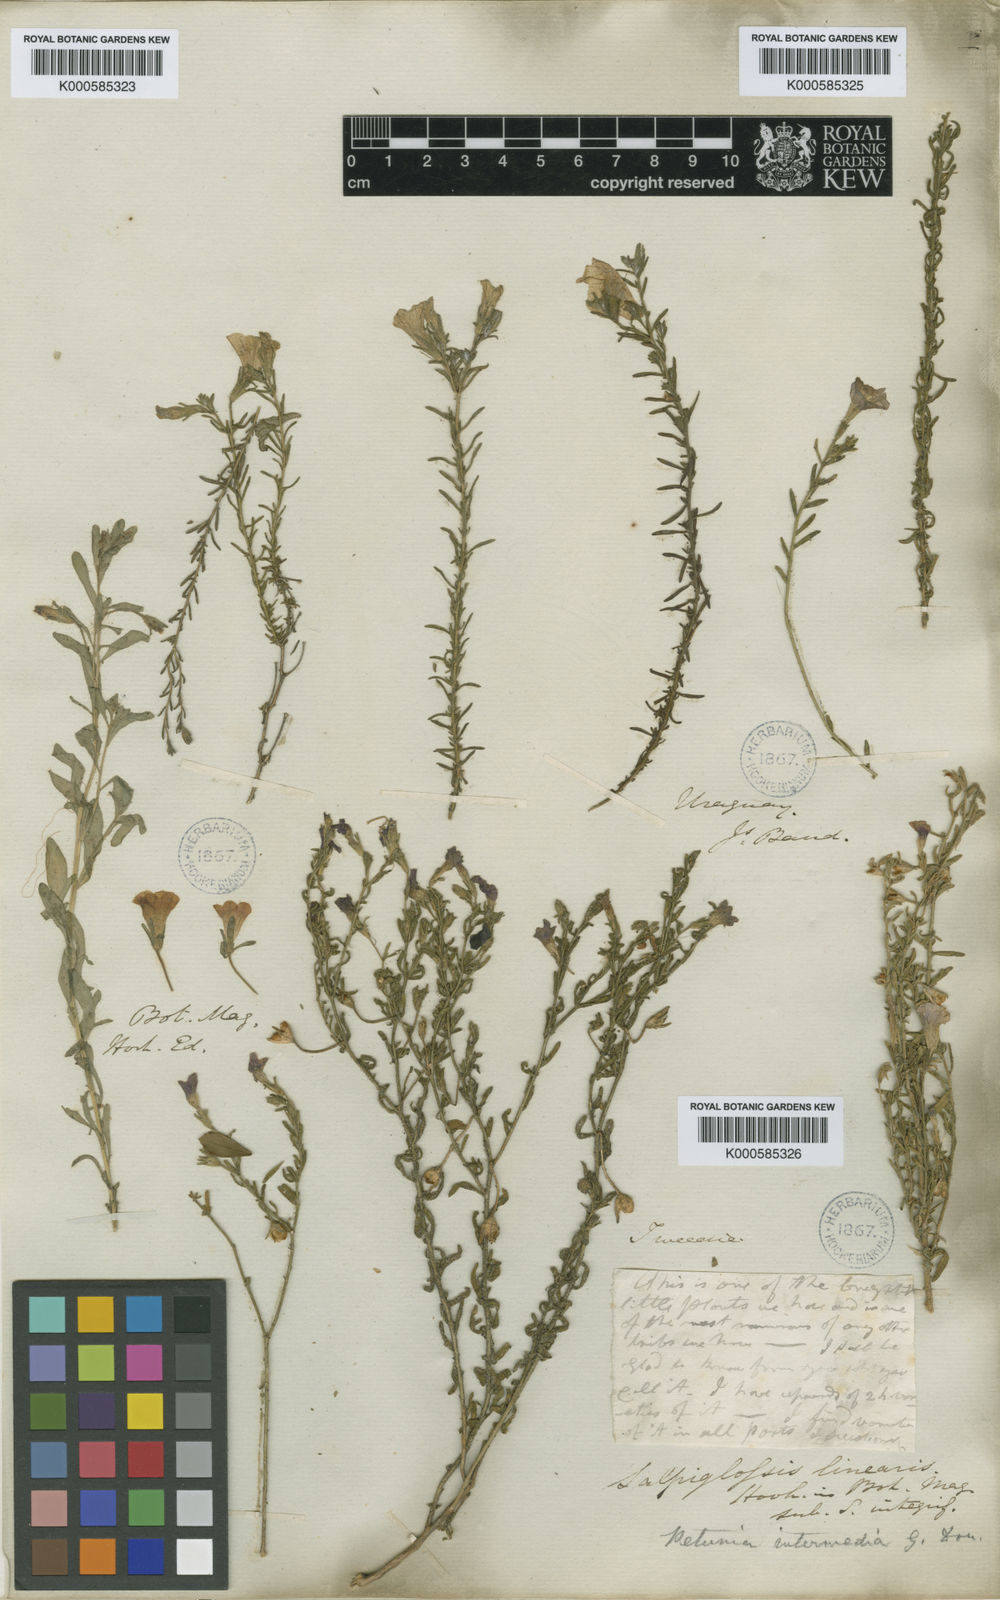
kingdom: Plantae
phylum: Tracheophyta
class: Magnoliopsida
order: Solanales
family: Solanaceae
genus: Calibrachoa
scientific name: Calibrachoa thymifolia
